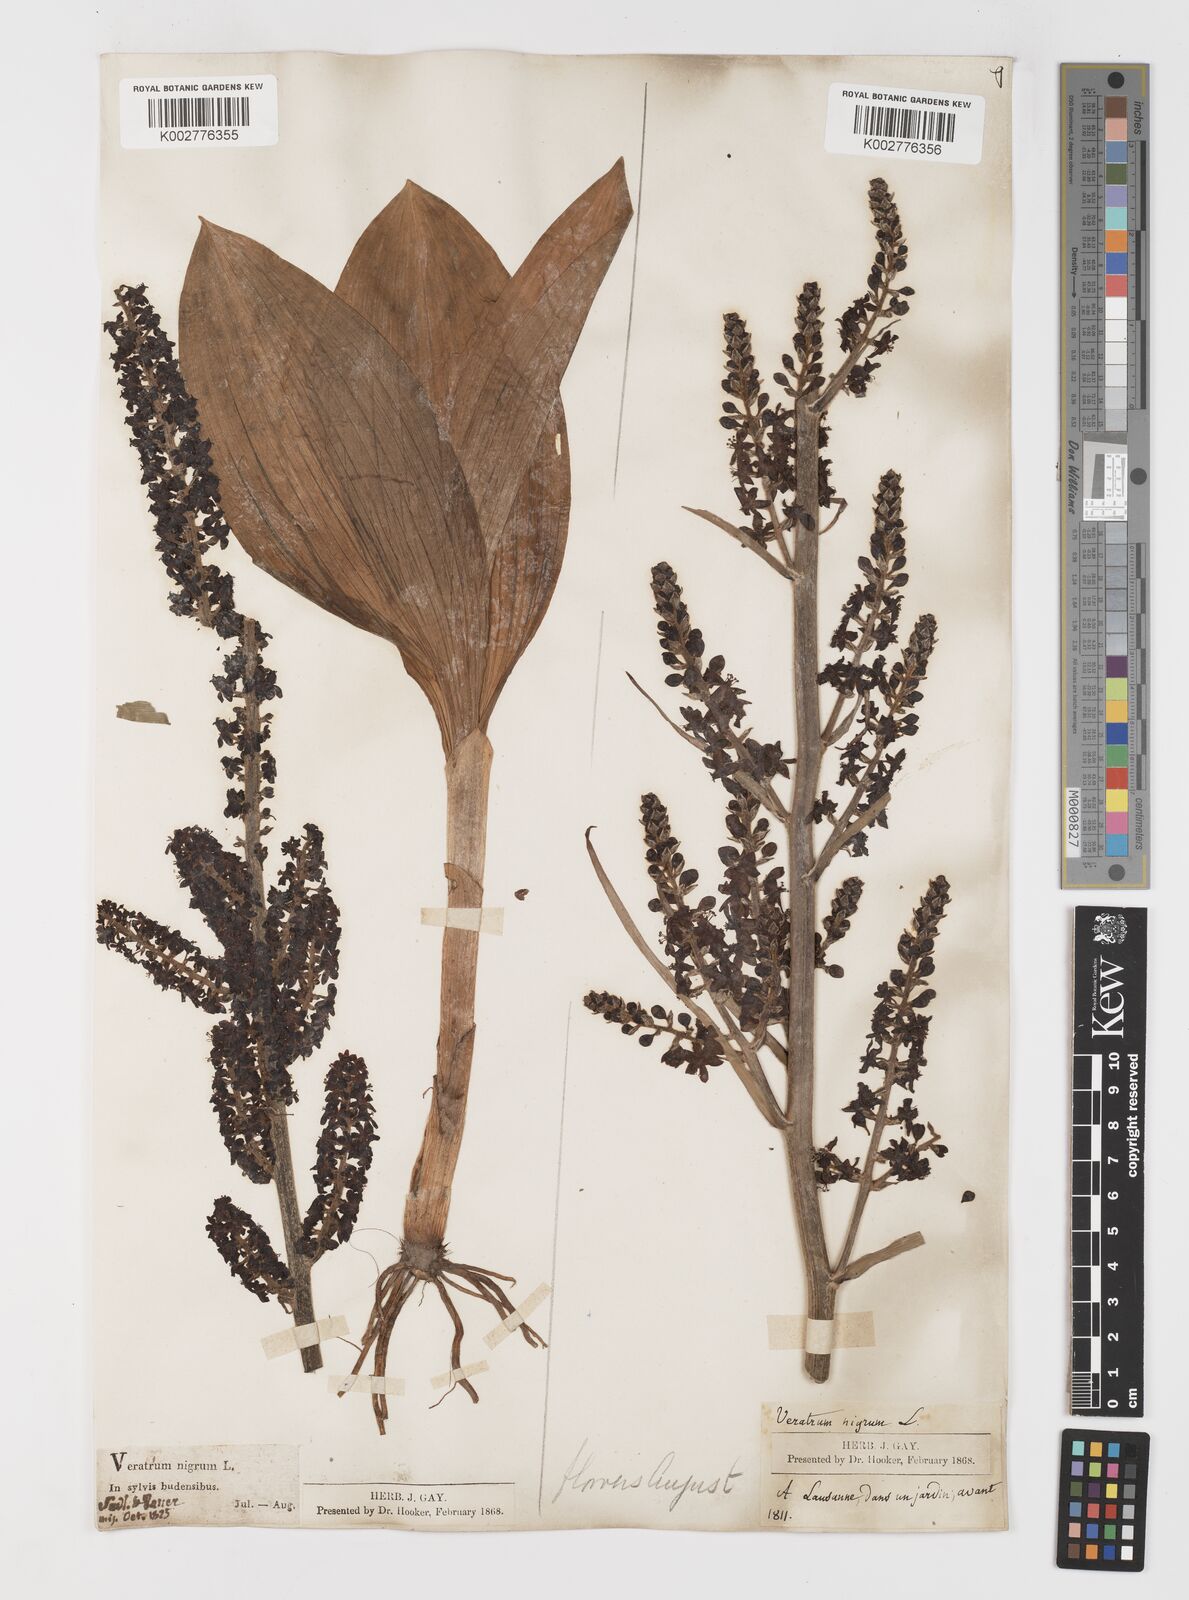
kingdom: Plantae
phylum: Tracheophyta
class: Liliopsida
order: Liliales
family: Melanthiaceae
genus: Veratrum
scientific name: Veratrum nigrum
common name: Black veratrum
